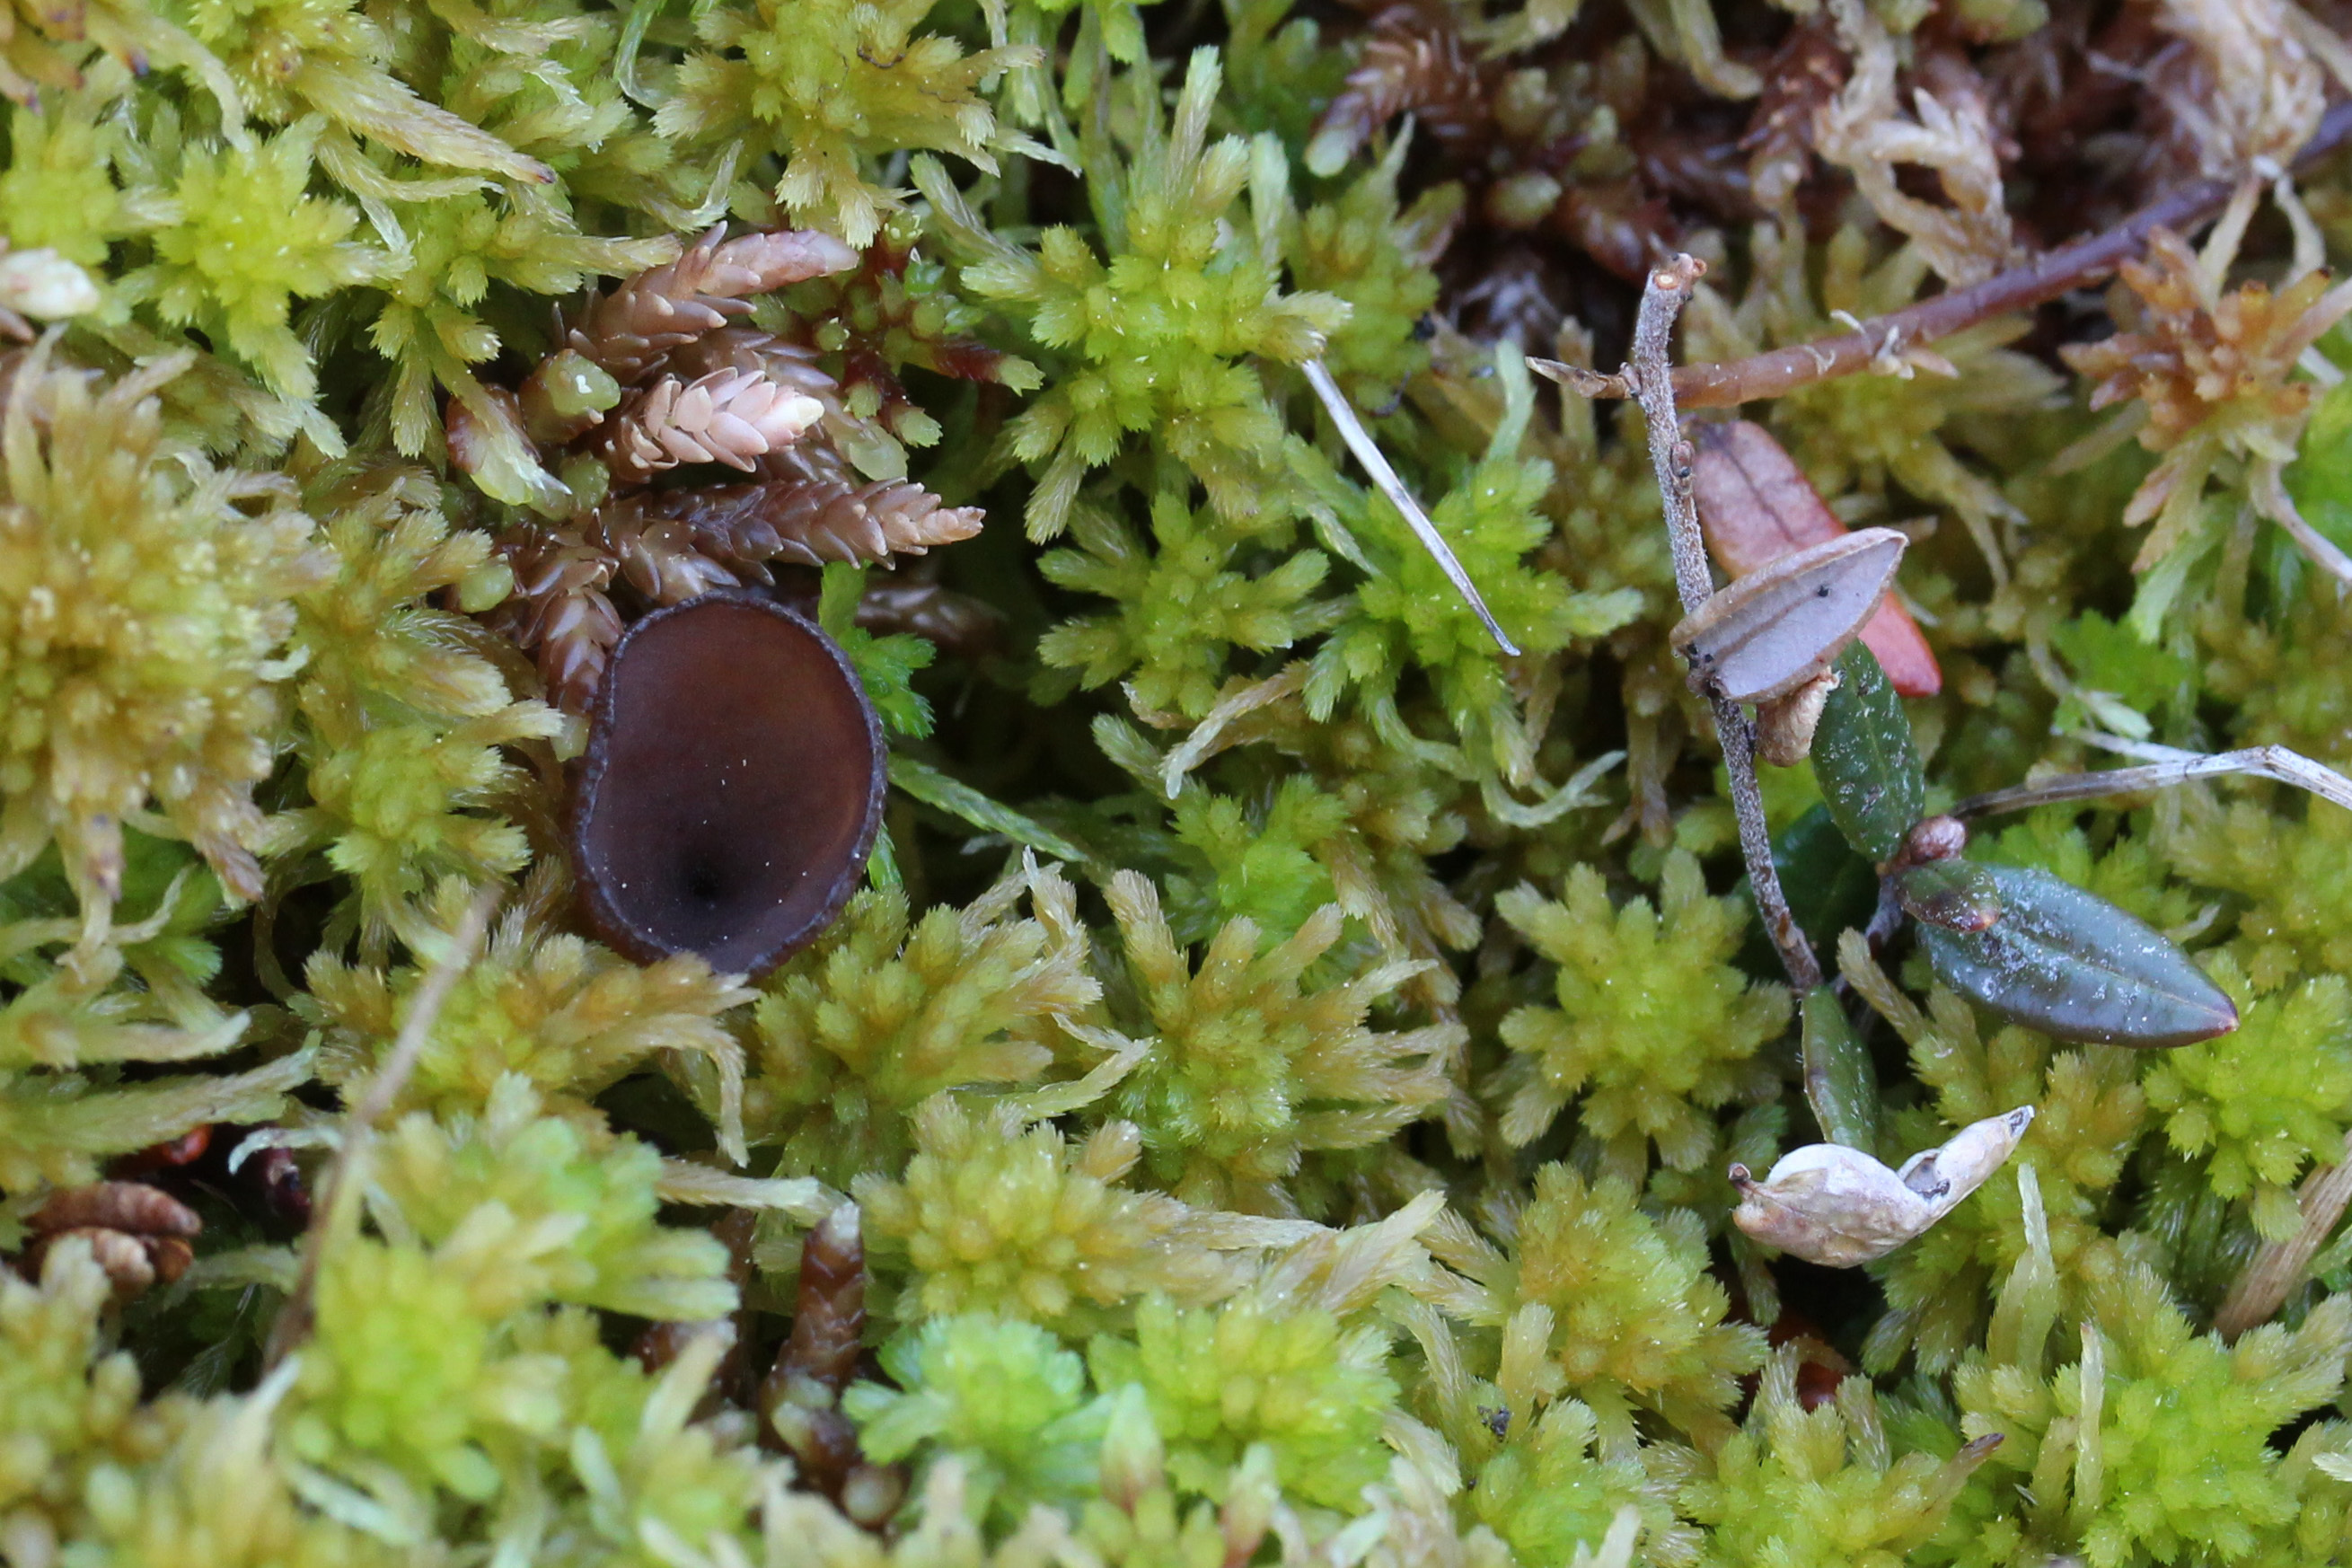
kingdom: Fungi
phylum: Ascomycota
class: Leotiomycetes
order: Helotiales
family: Sclerotiniaceae
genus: Monilinia
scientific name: Monilinia oxycocci
